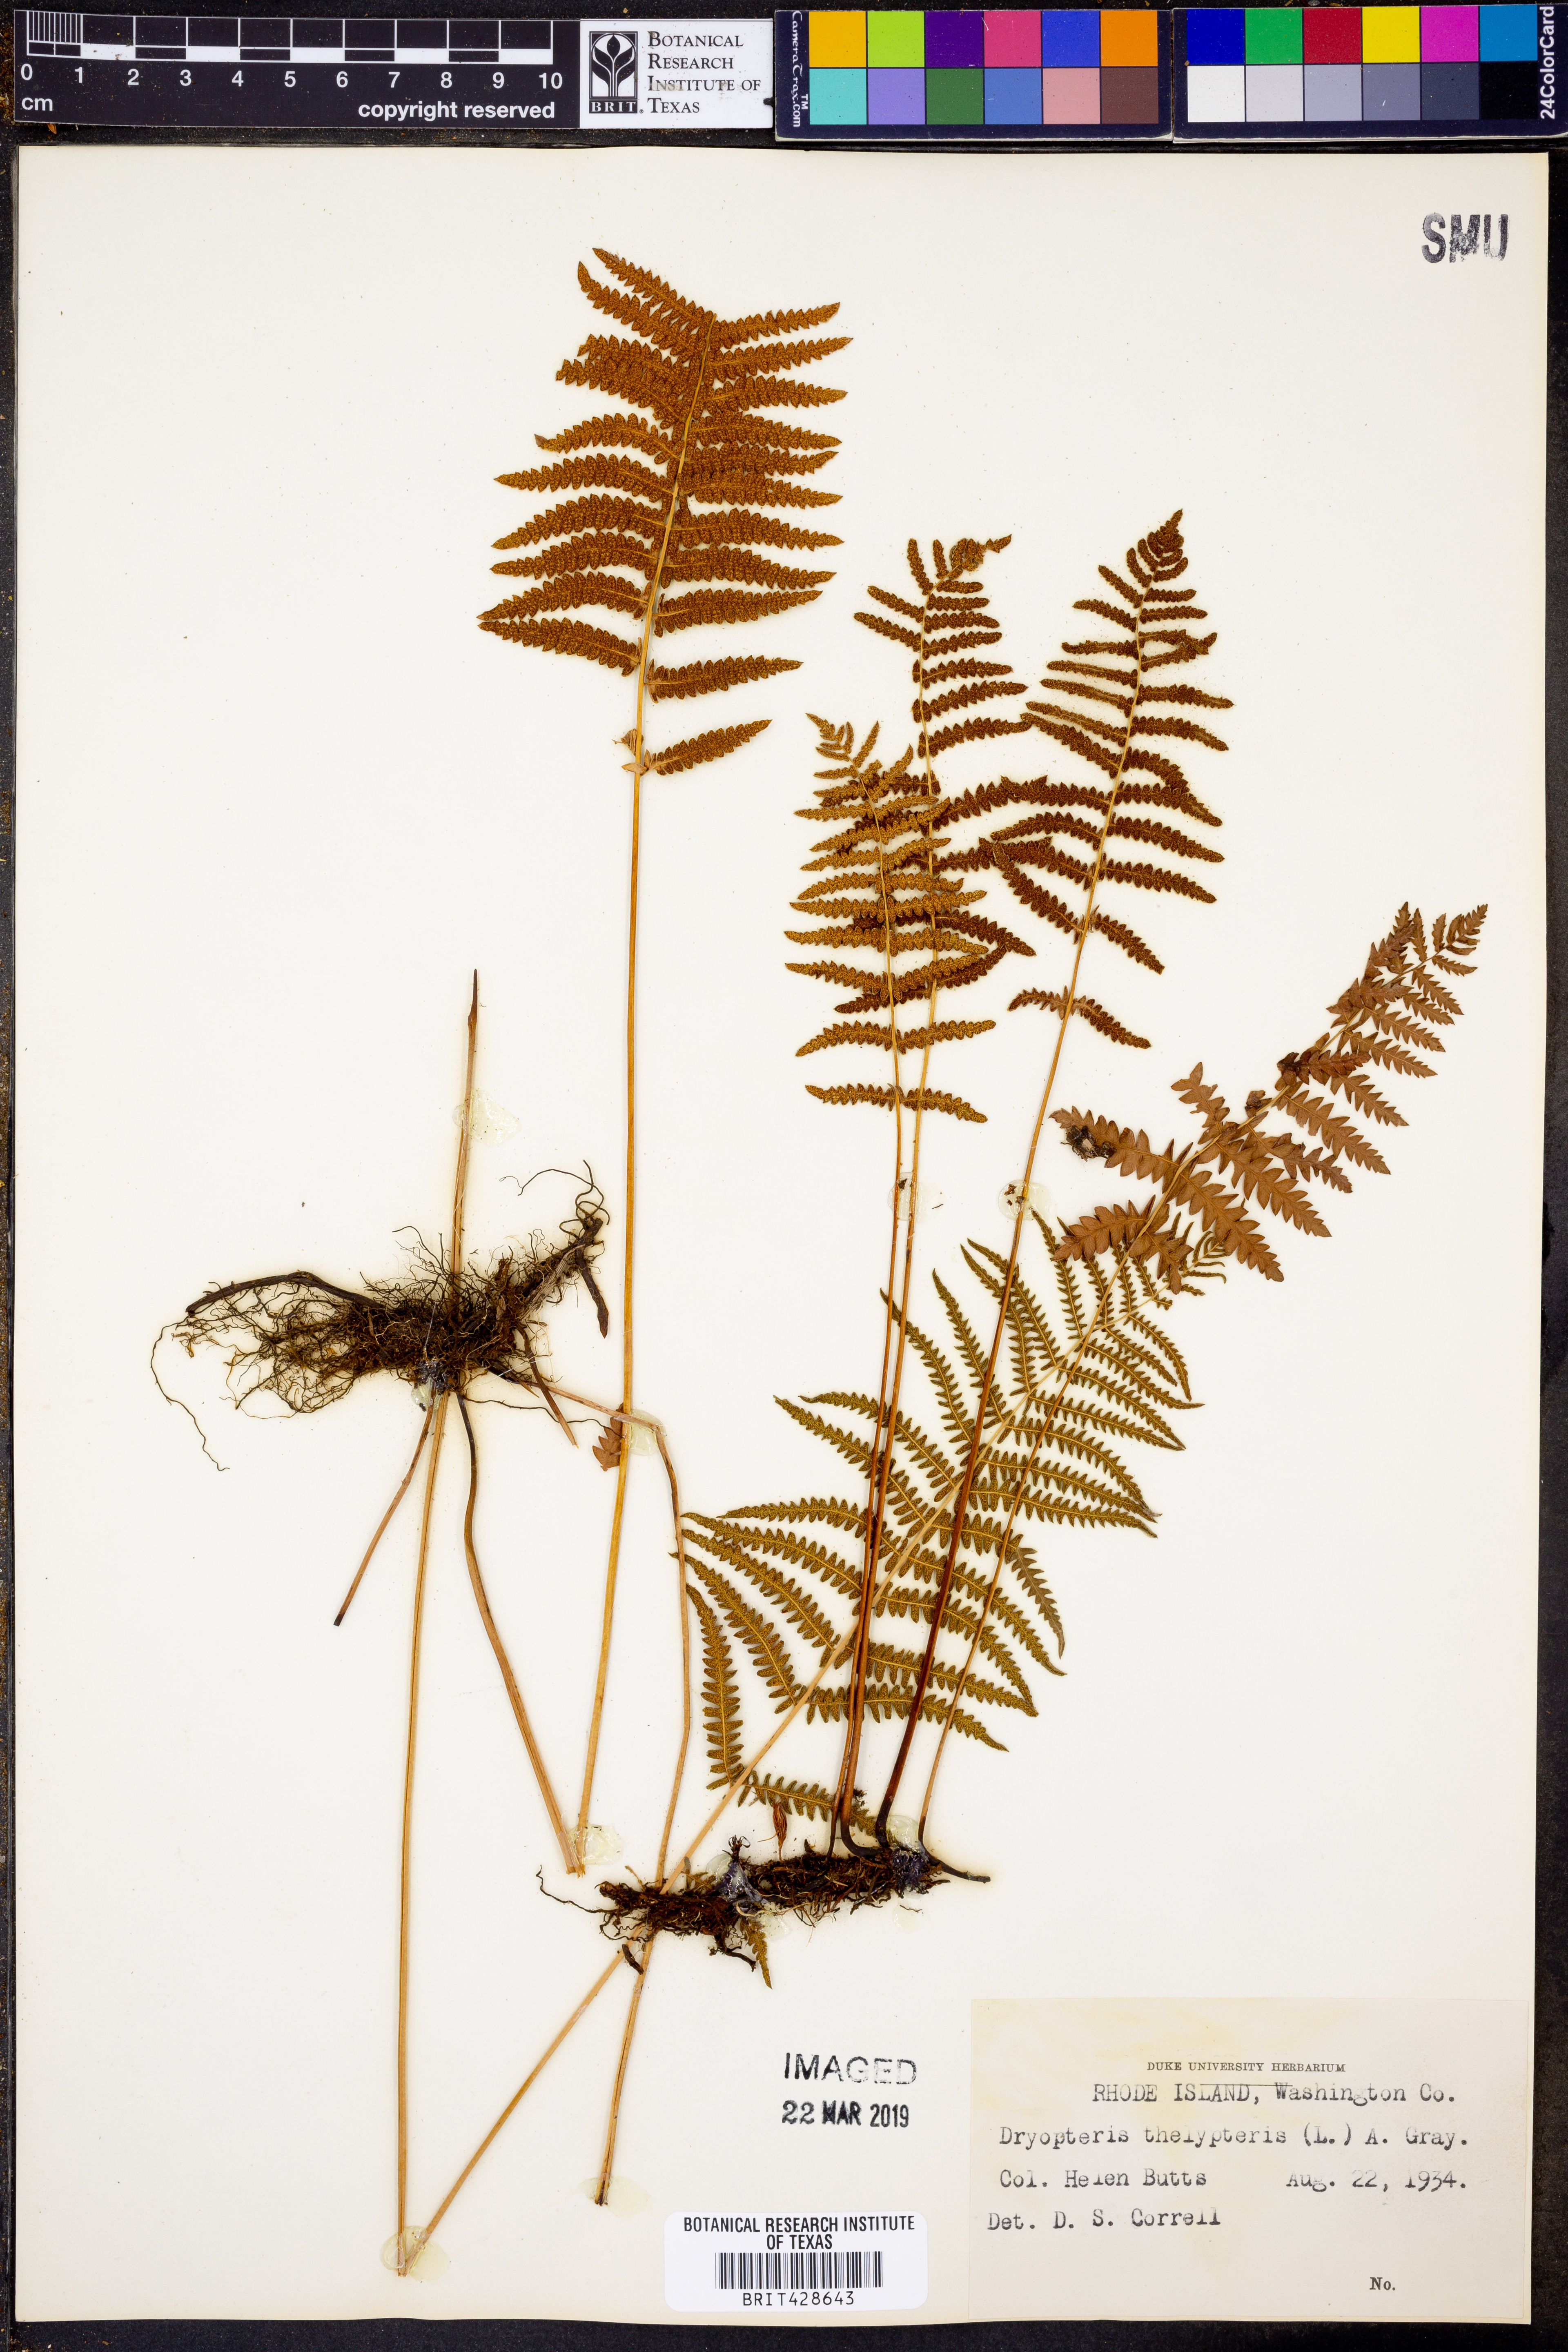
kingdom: Plantae
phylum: Tracheophyta
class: Polypodiopsida
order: Polypodiales
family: Thelypteridaceae
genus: Thelypteris
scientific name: Thelypteris palustris
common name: Marsh fern
